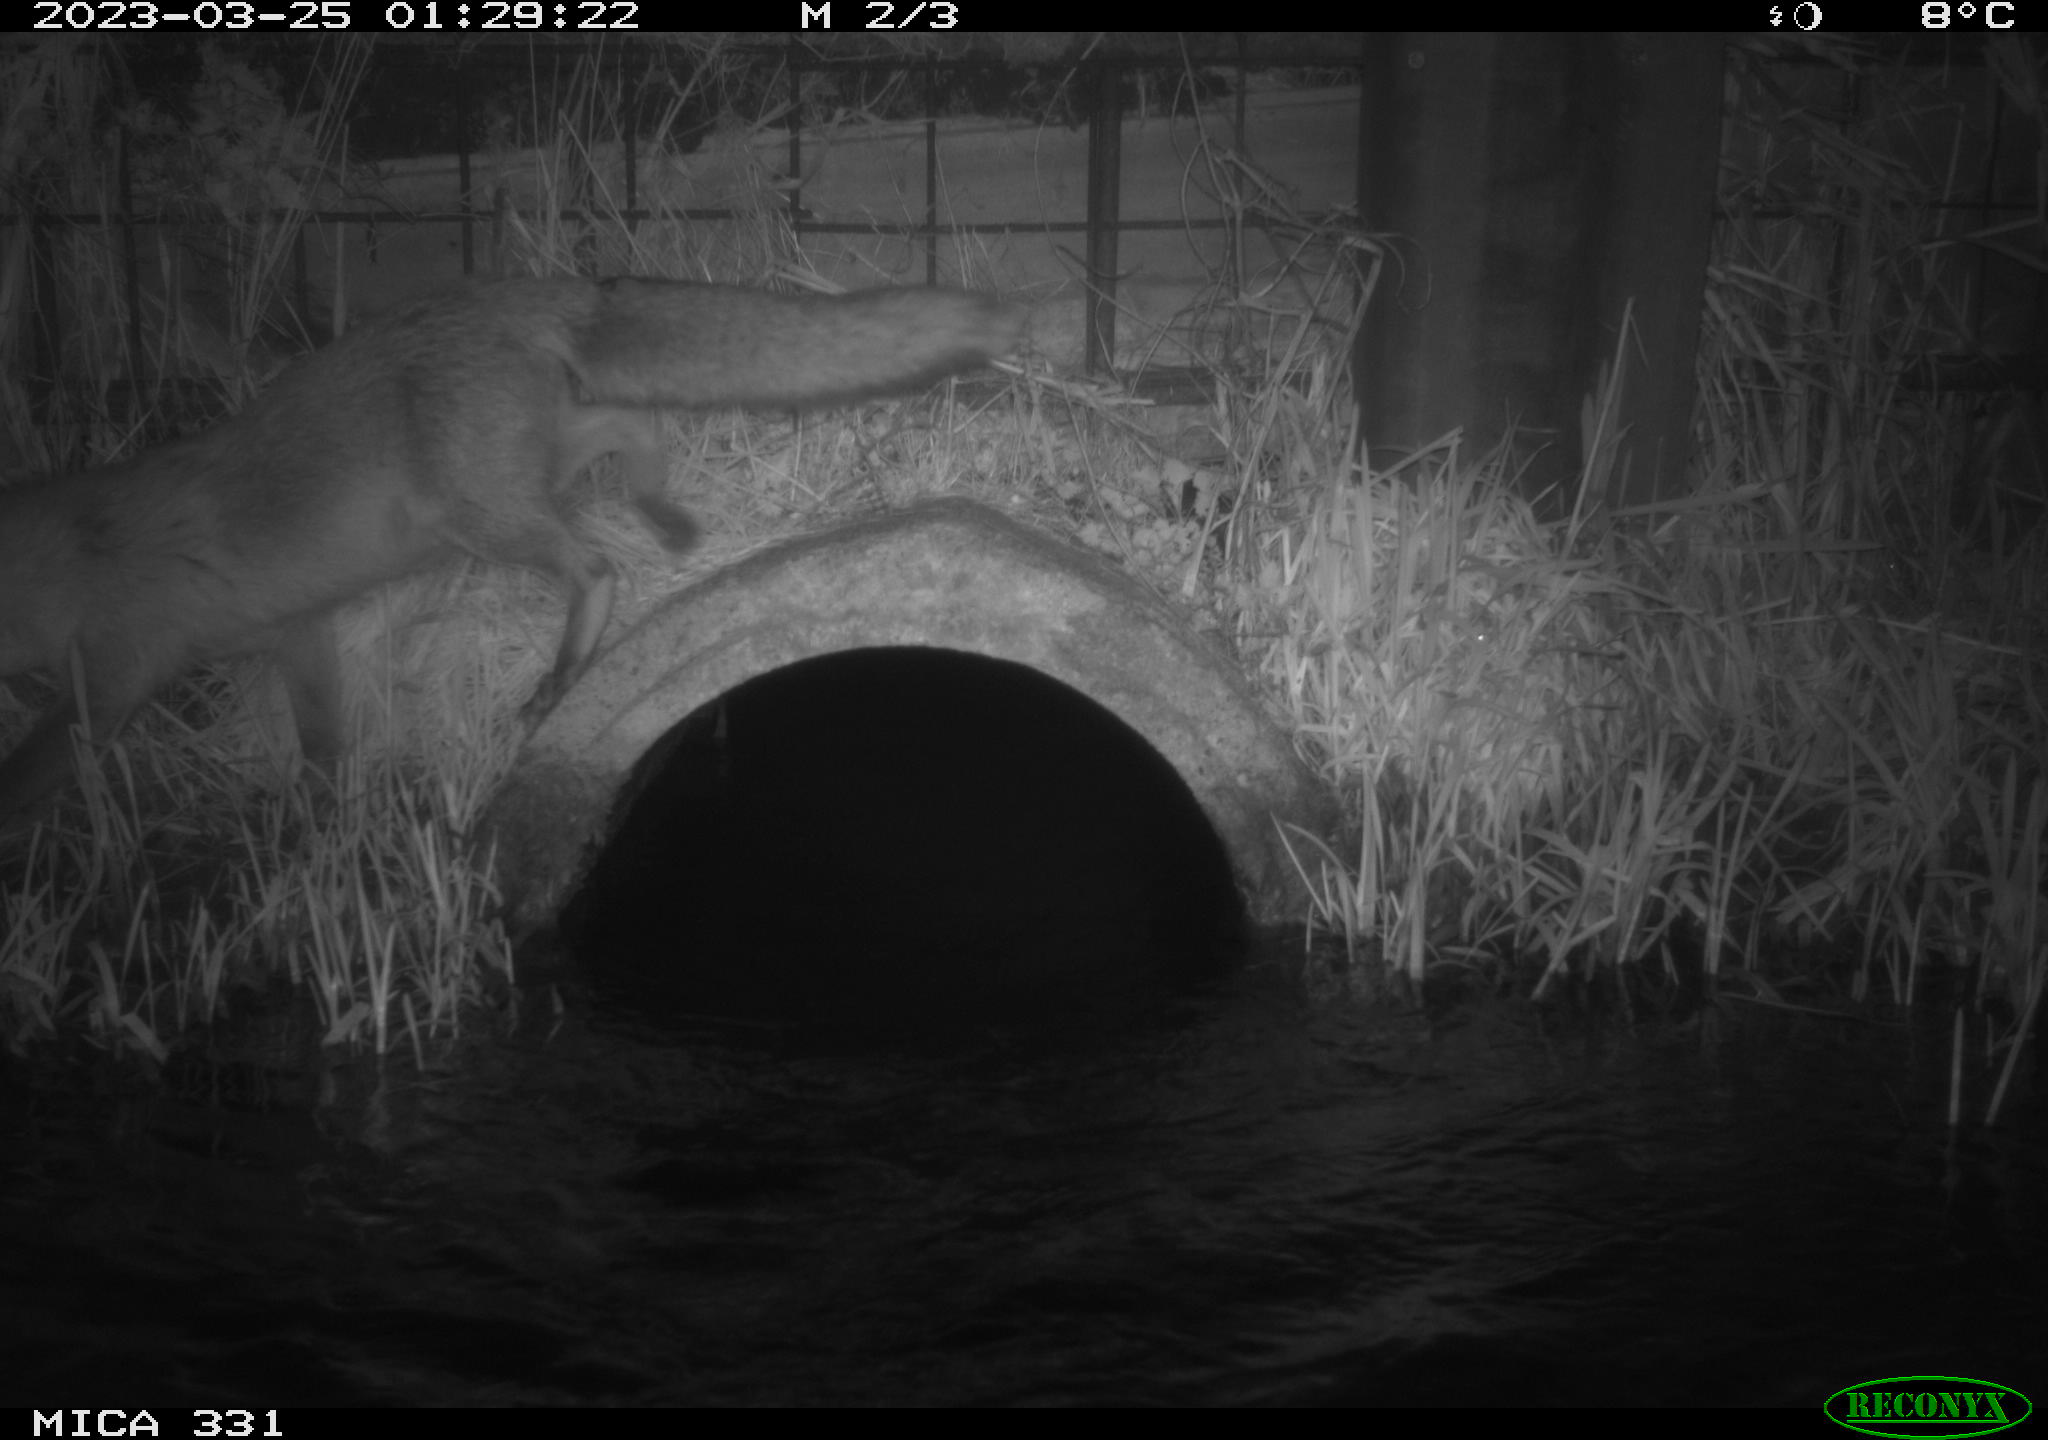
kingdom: Animalia
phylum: Chordata
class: Mammalia
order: Carnivora
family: Canidae
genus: Vulpes
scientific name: Vulpes vulpes
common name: Red fox
